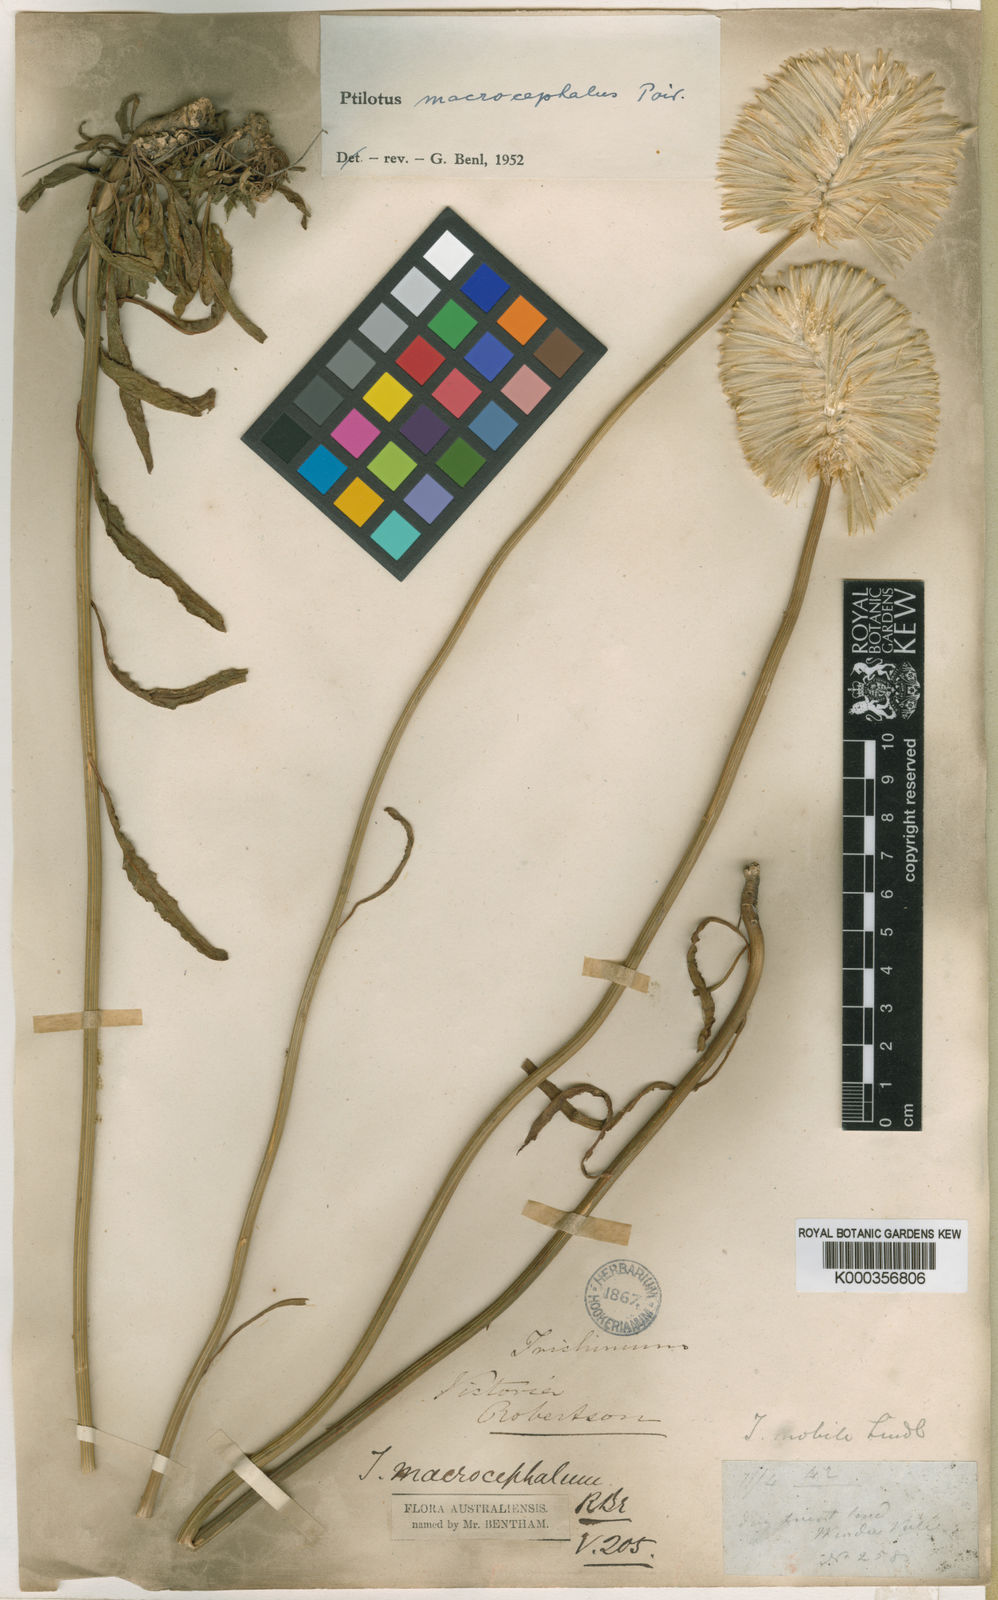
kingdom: Plantae
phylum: Tracheophyta
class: Magnoliopsida
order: Caryophyllales
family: Amaranthaceae
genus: Ptilotus
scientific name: Ptilotus macrocephalus
